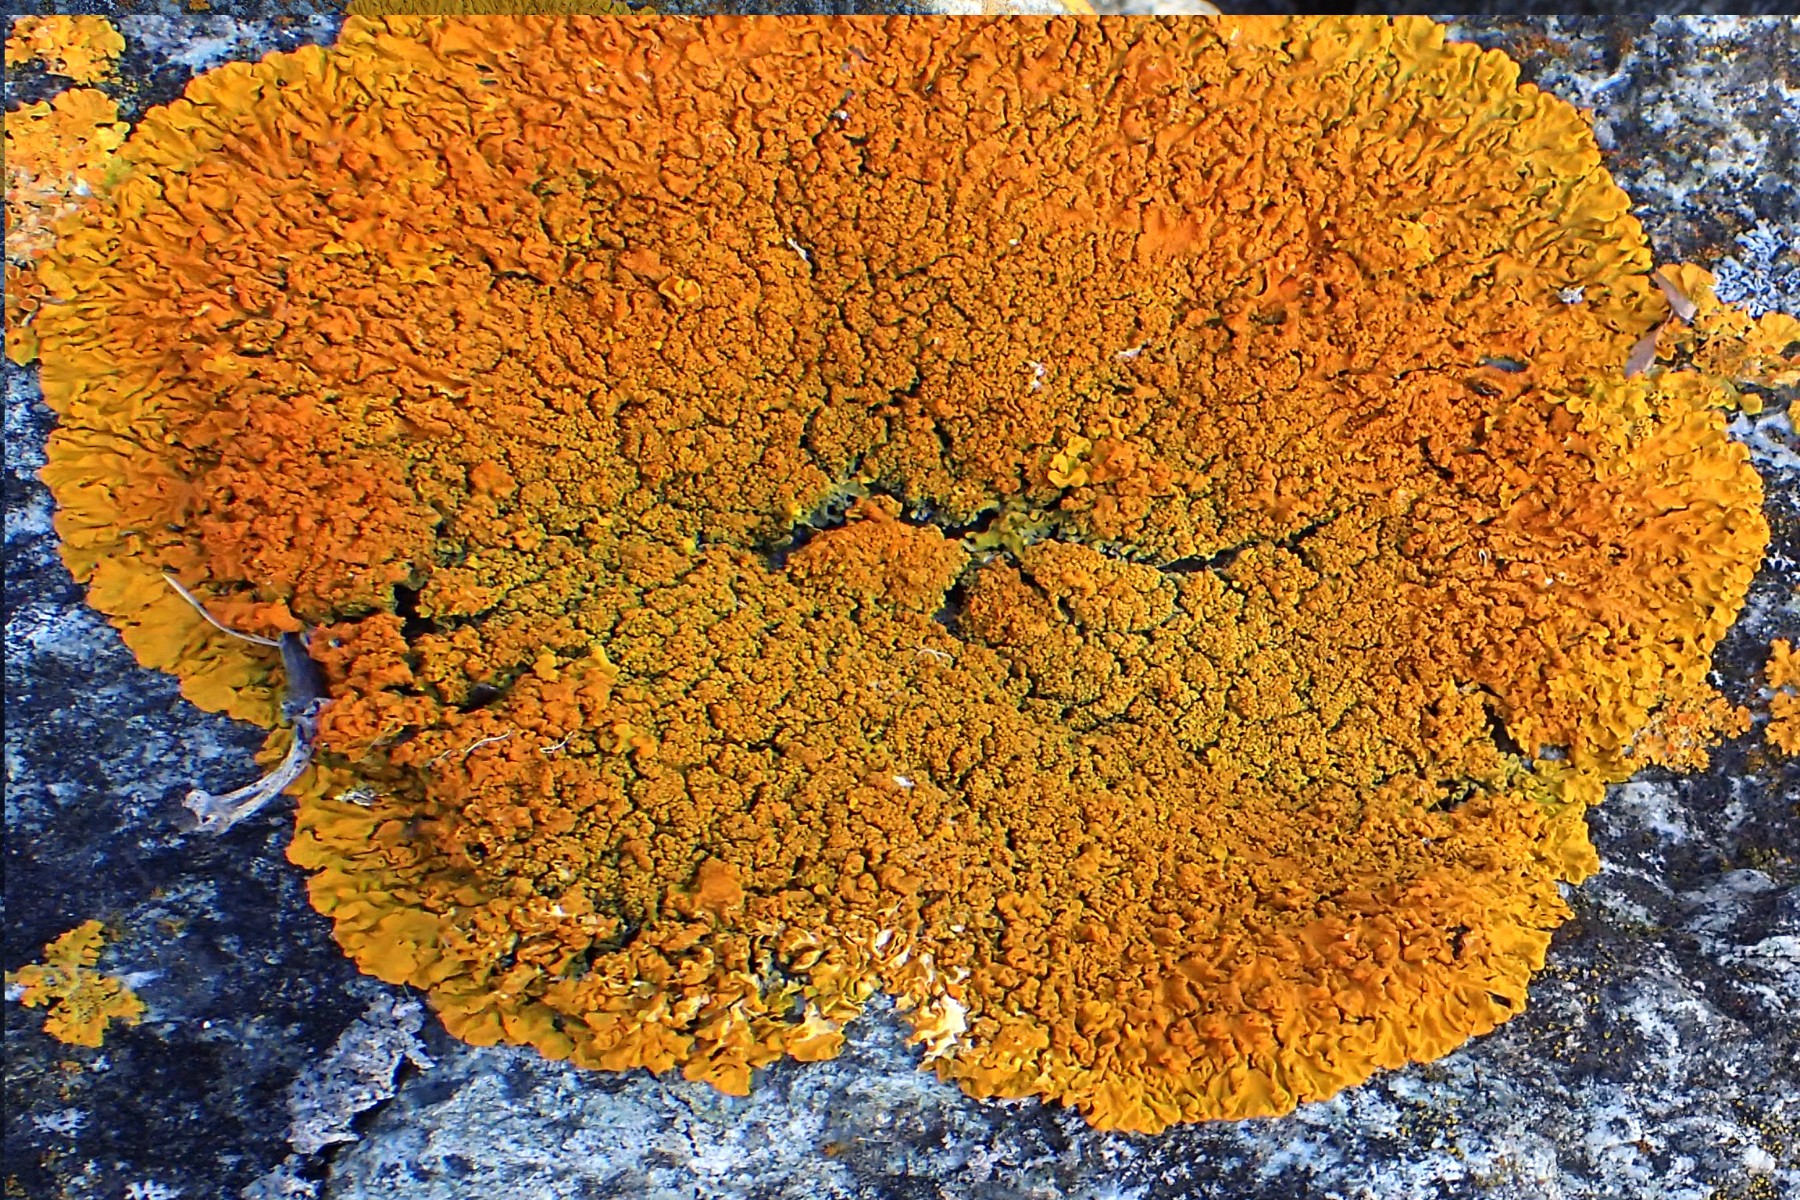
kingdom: Fungi
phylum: Ascomycota
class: Lecanoromycetes
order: Teloschistales
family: Teloschistaceae
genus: Xanthoria
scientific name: Xanthoria calcicola
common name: vortet væggelav
